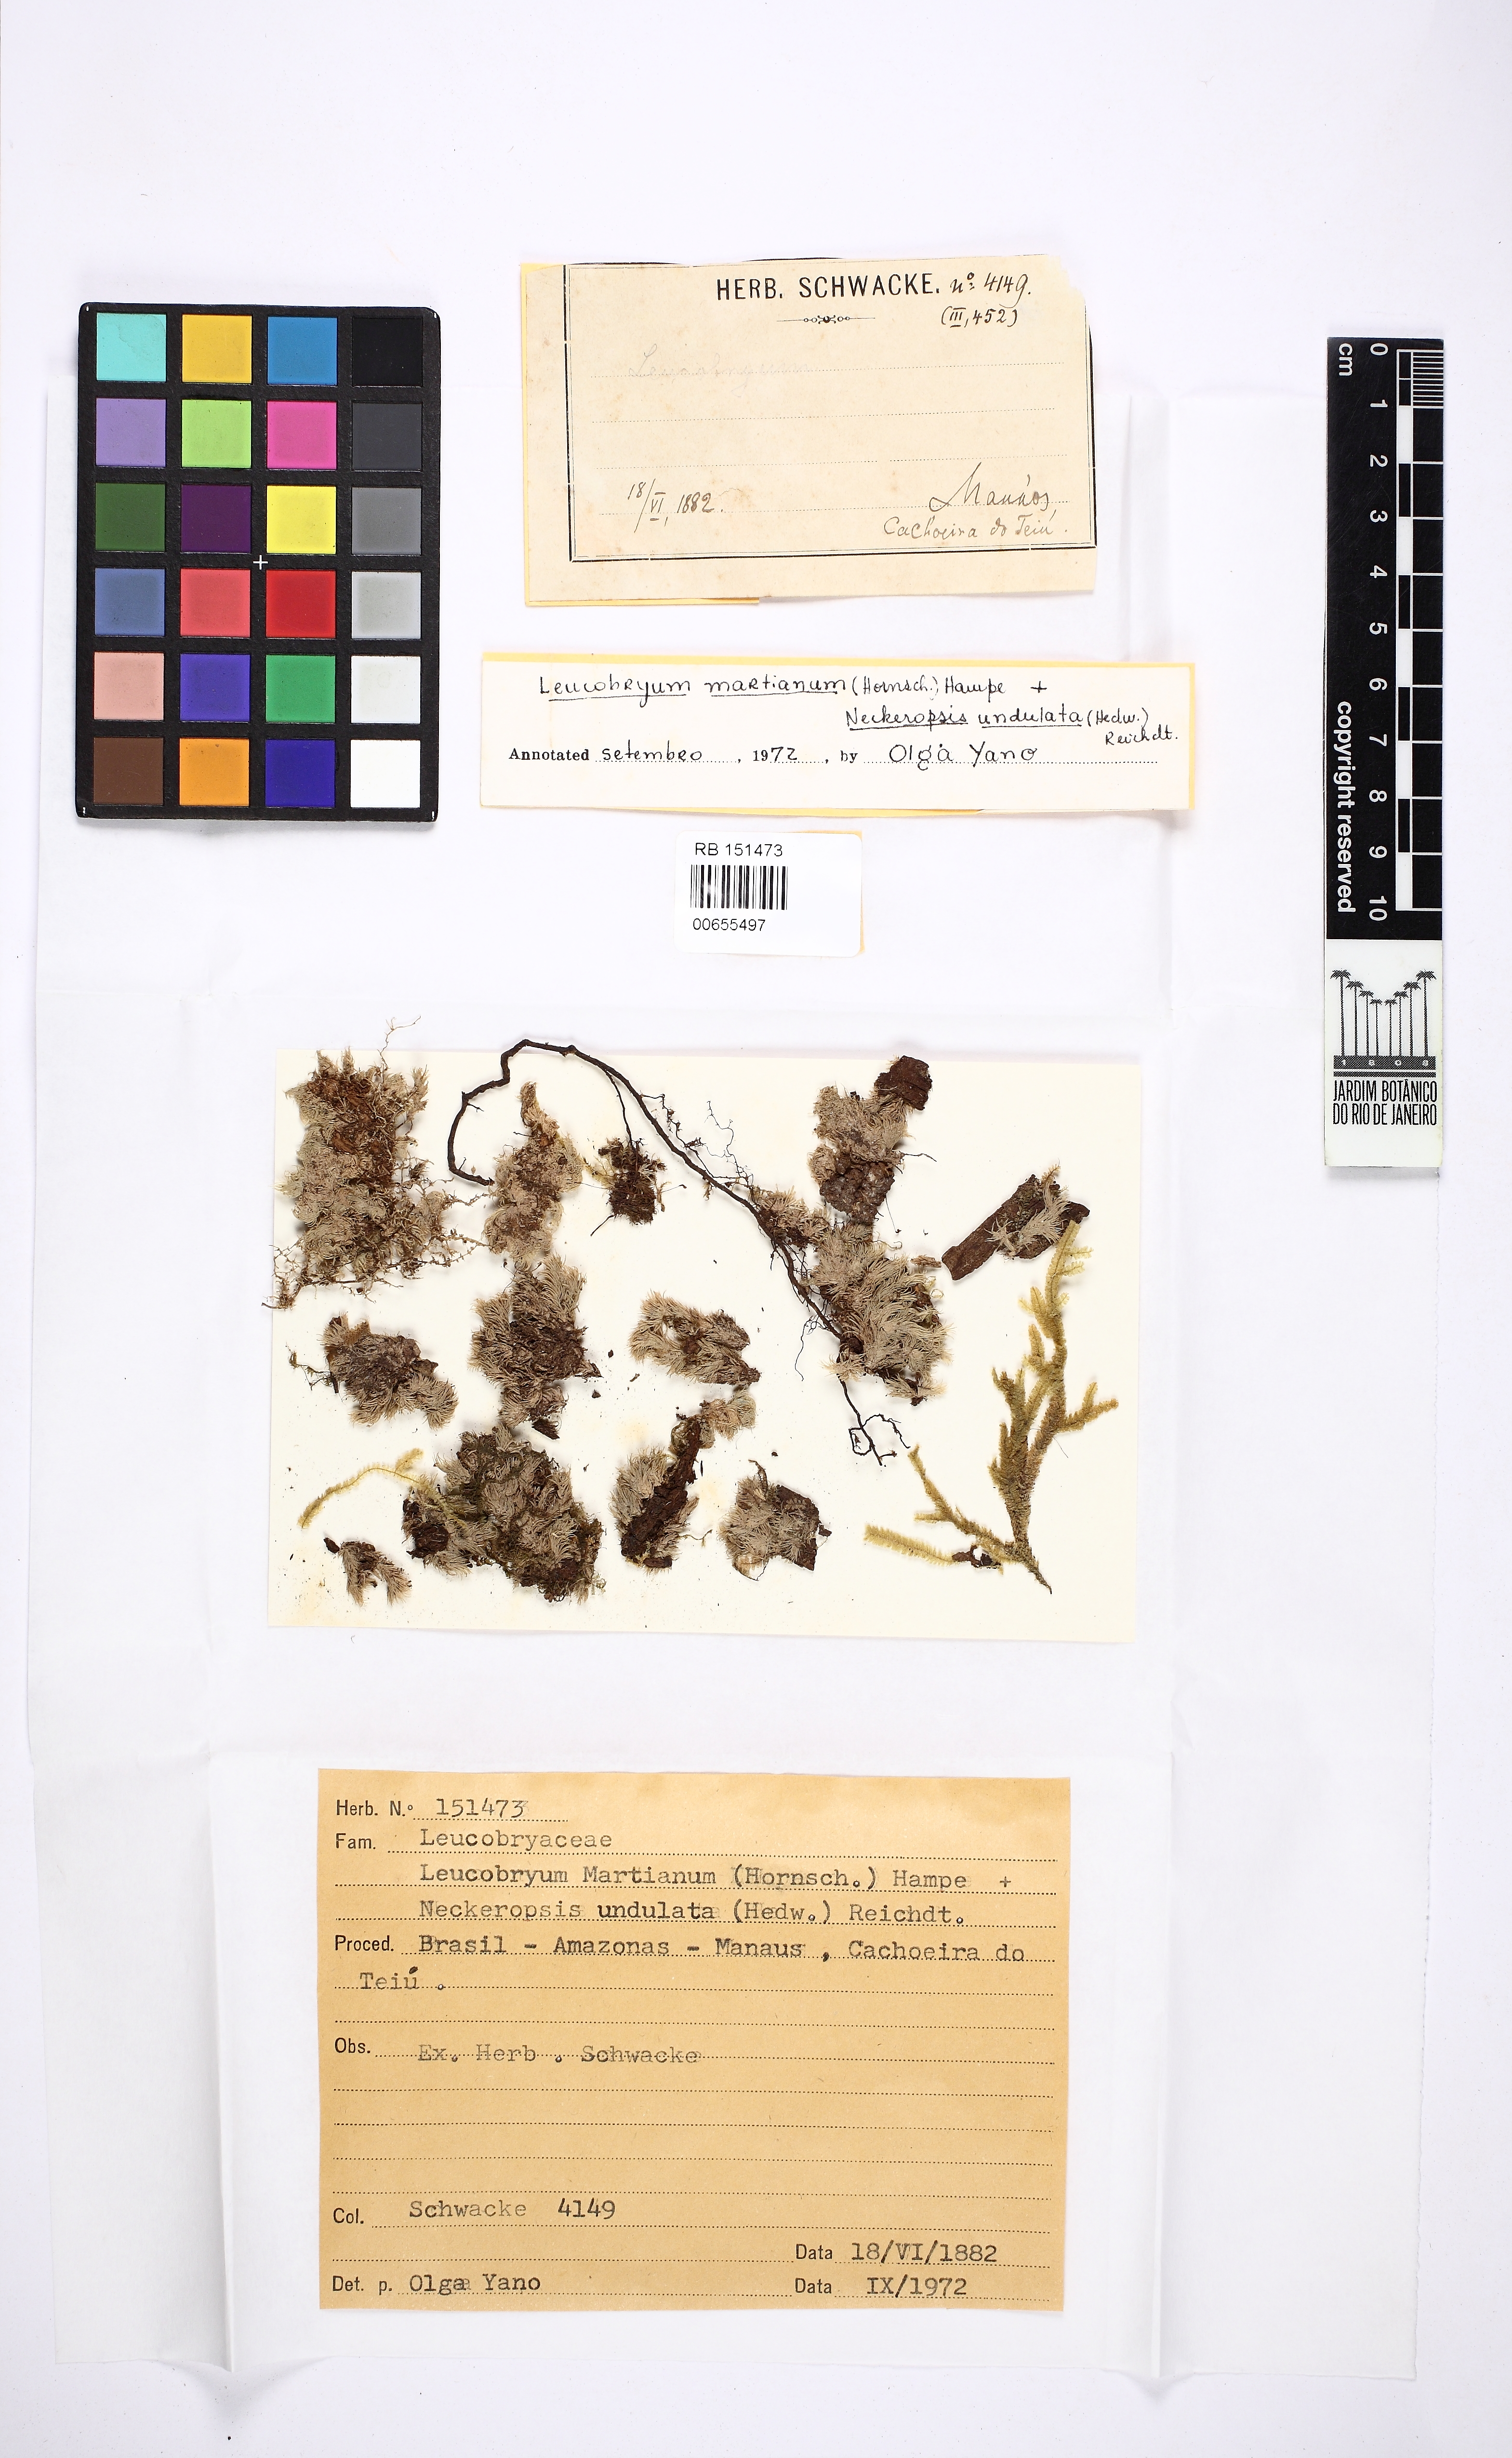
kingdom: Plantae
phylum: Bryophyta
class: Bryopsida
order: Dicranales
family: Leucobryaceae
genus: Leucobryum
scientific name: Leucobryum martianum
